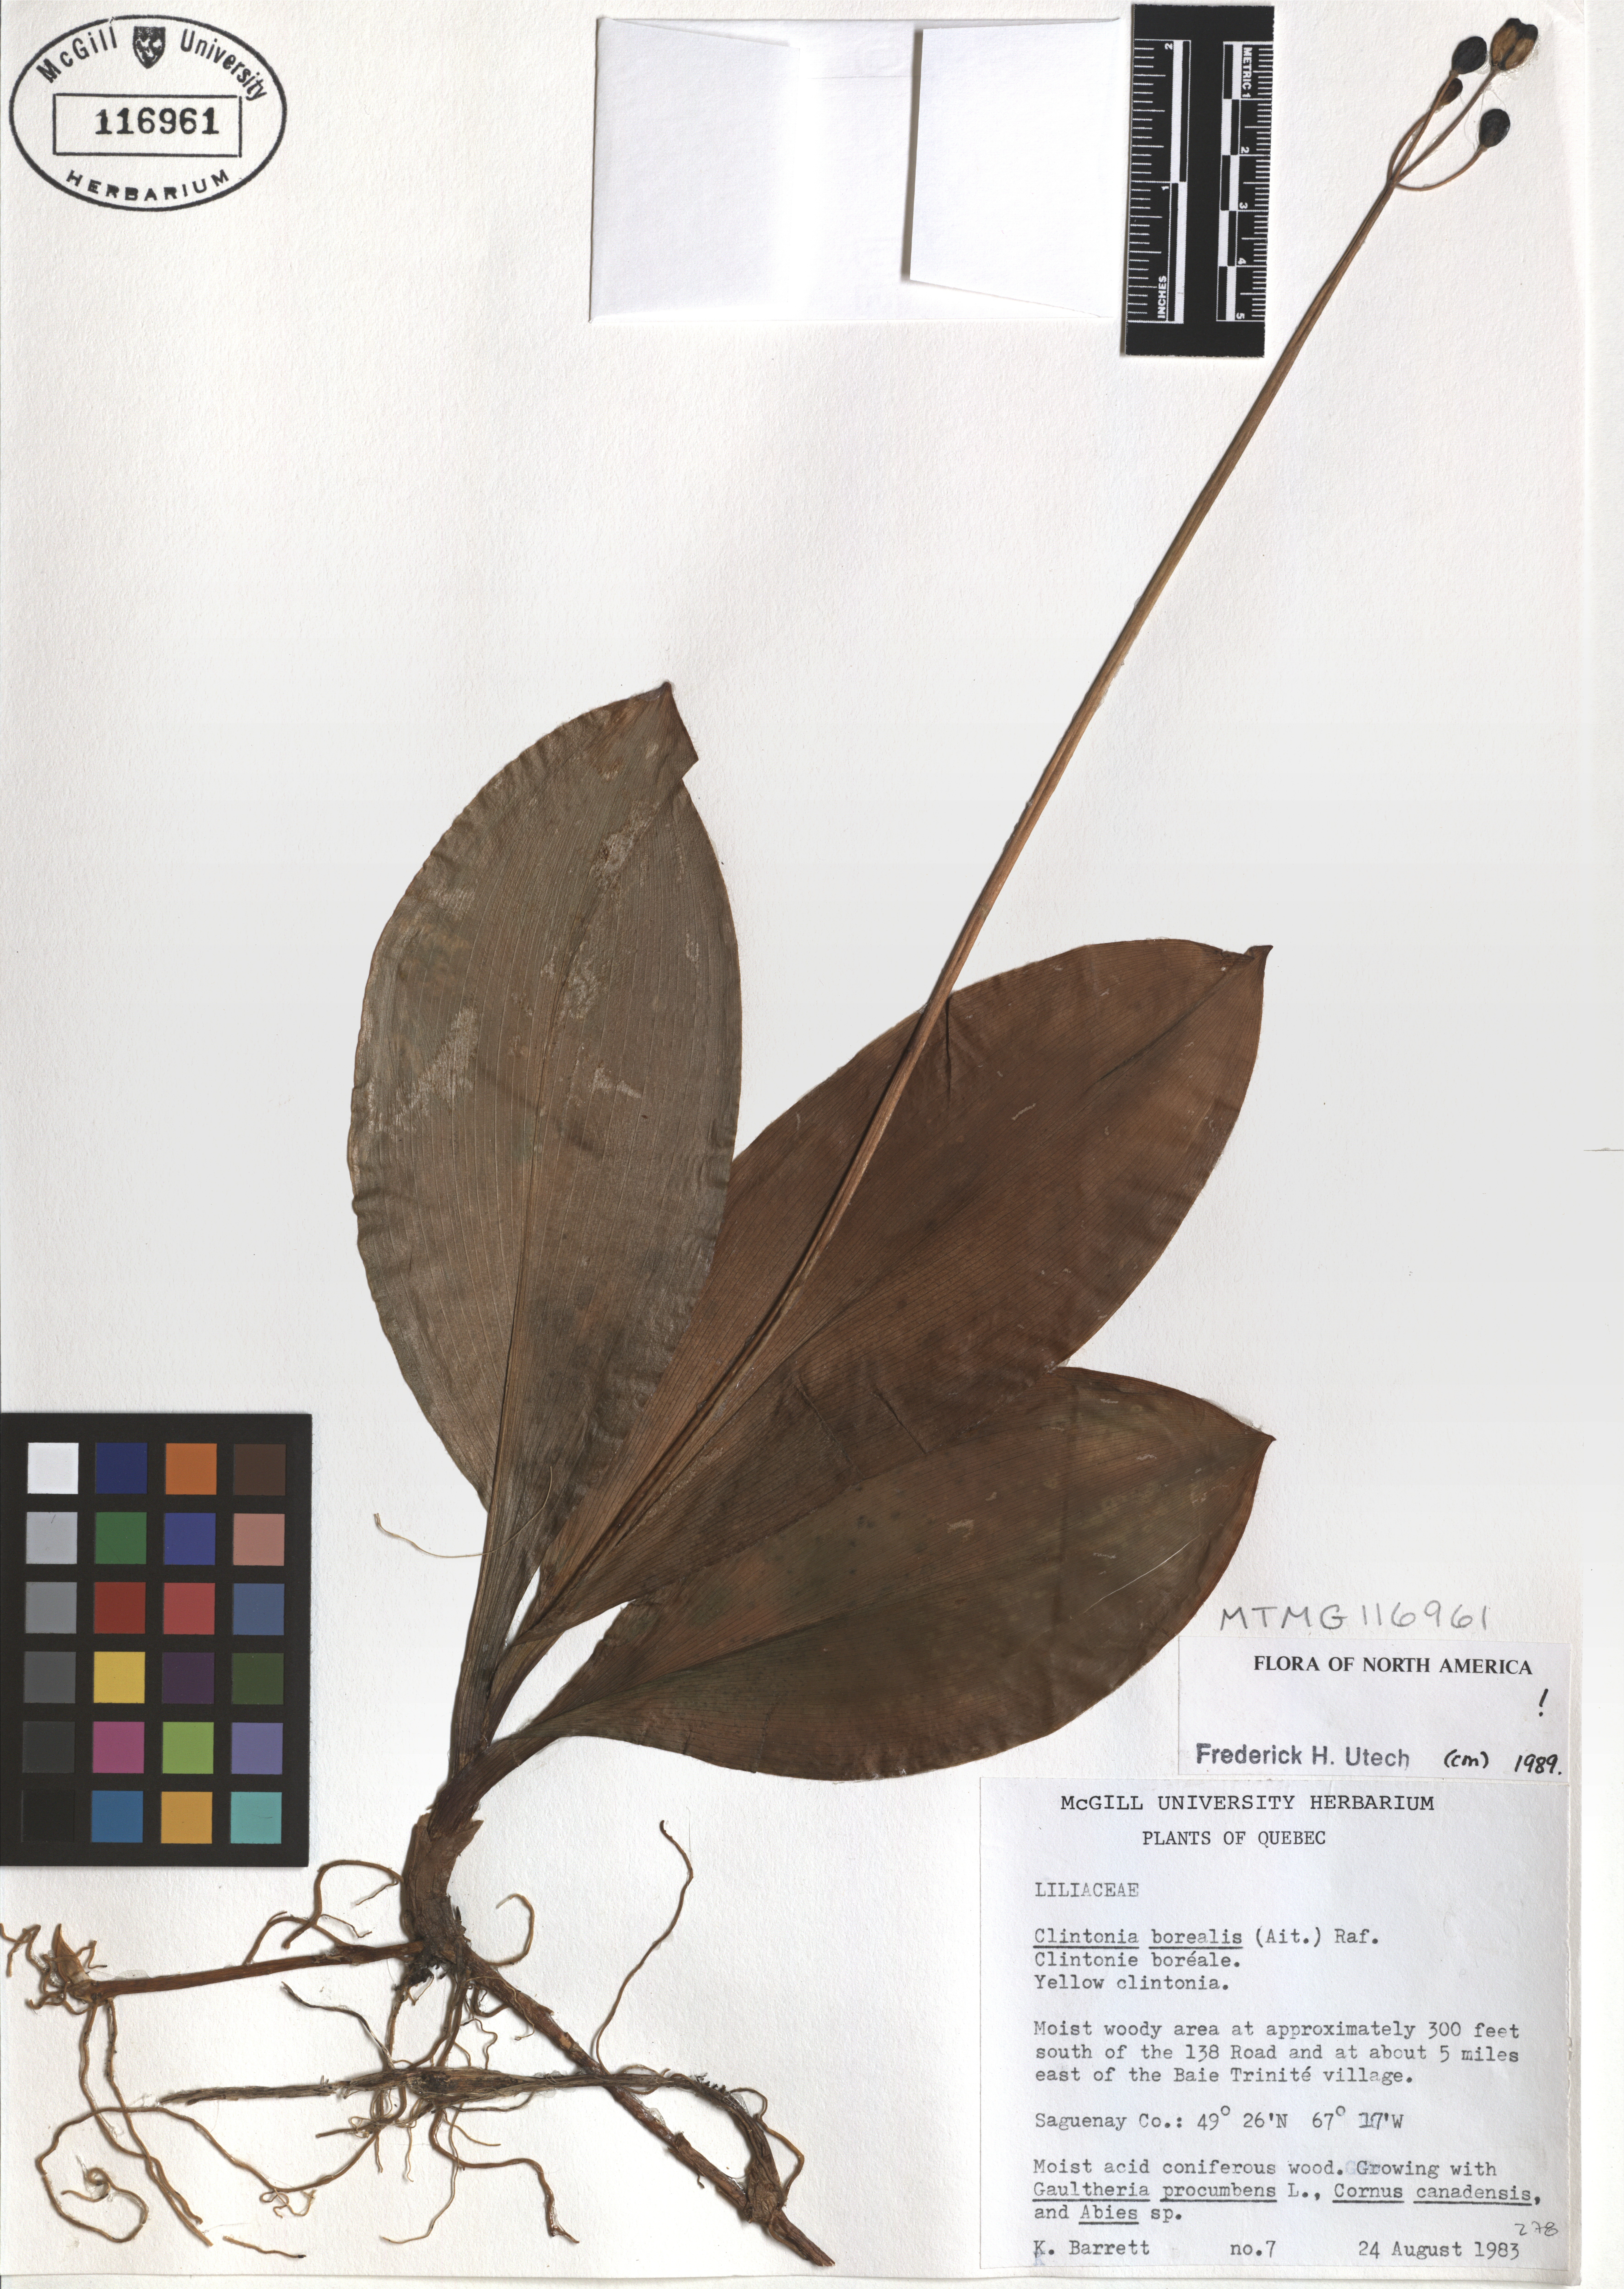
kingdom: Plantae
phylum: Tracheophyta
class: Liliopsida
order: Liliales
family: Liliaceae
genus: Clintonia
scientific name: Clintonia borealis
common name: Yellow clintonia
